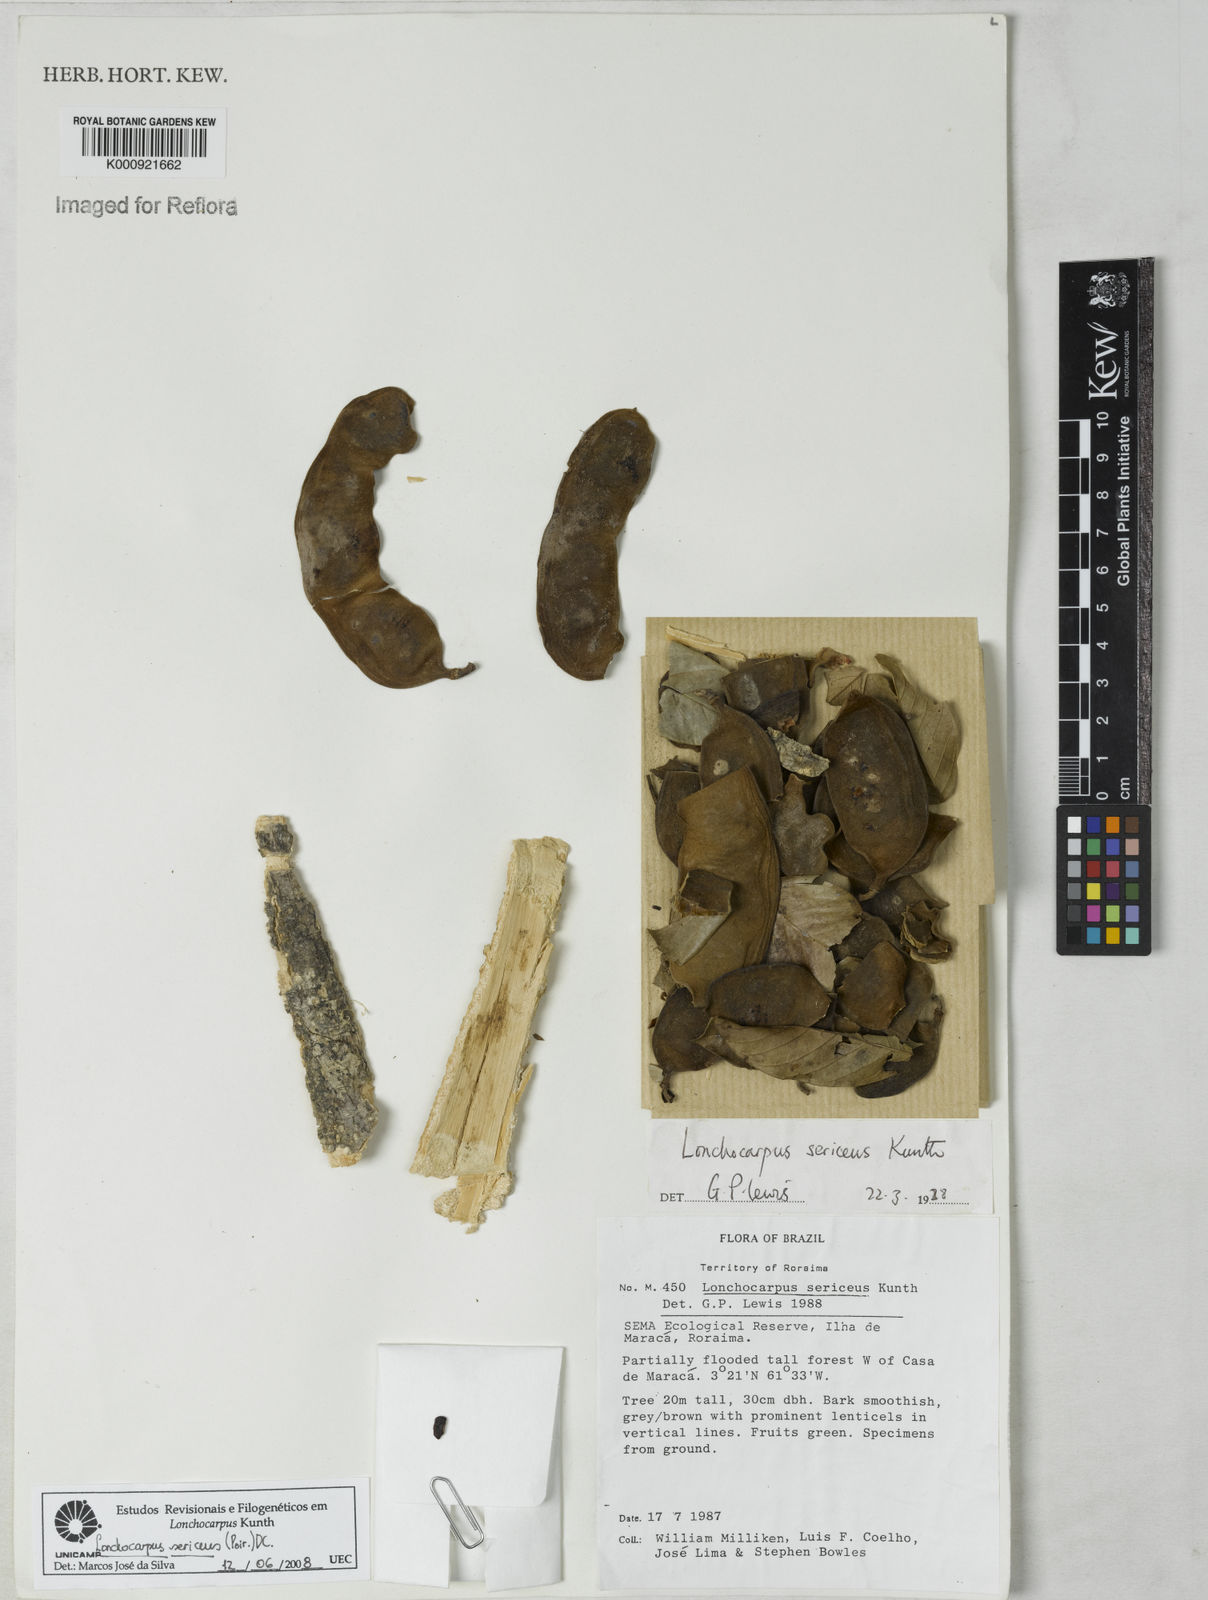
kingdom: Plantae
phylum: Tracheophyta
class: Magnoliopsida
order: Fabales
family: Fabaceae
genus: Lonchocarpus
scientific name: Lonchocarpus
